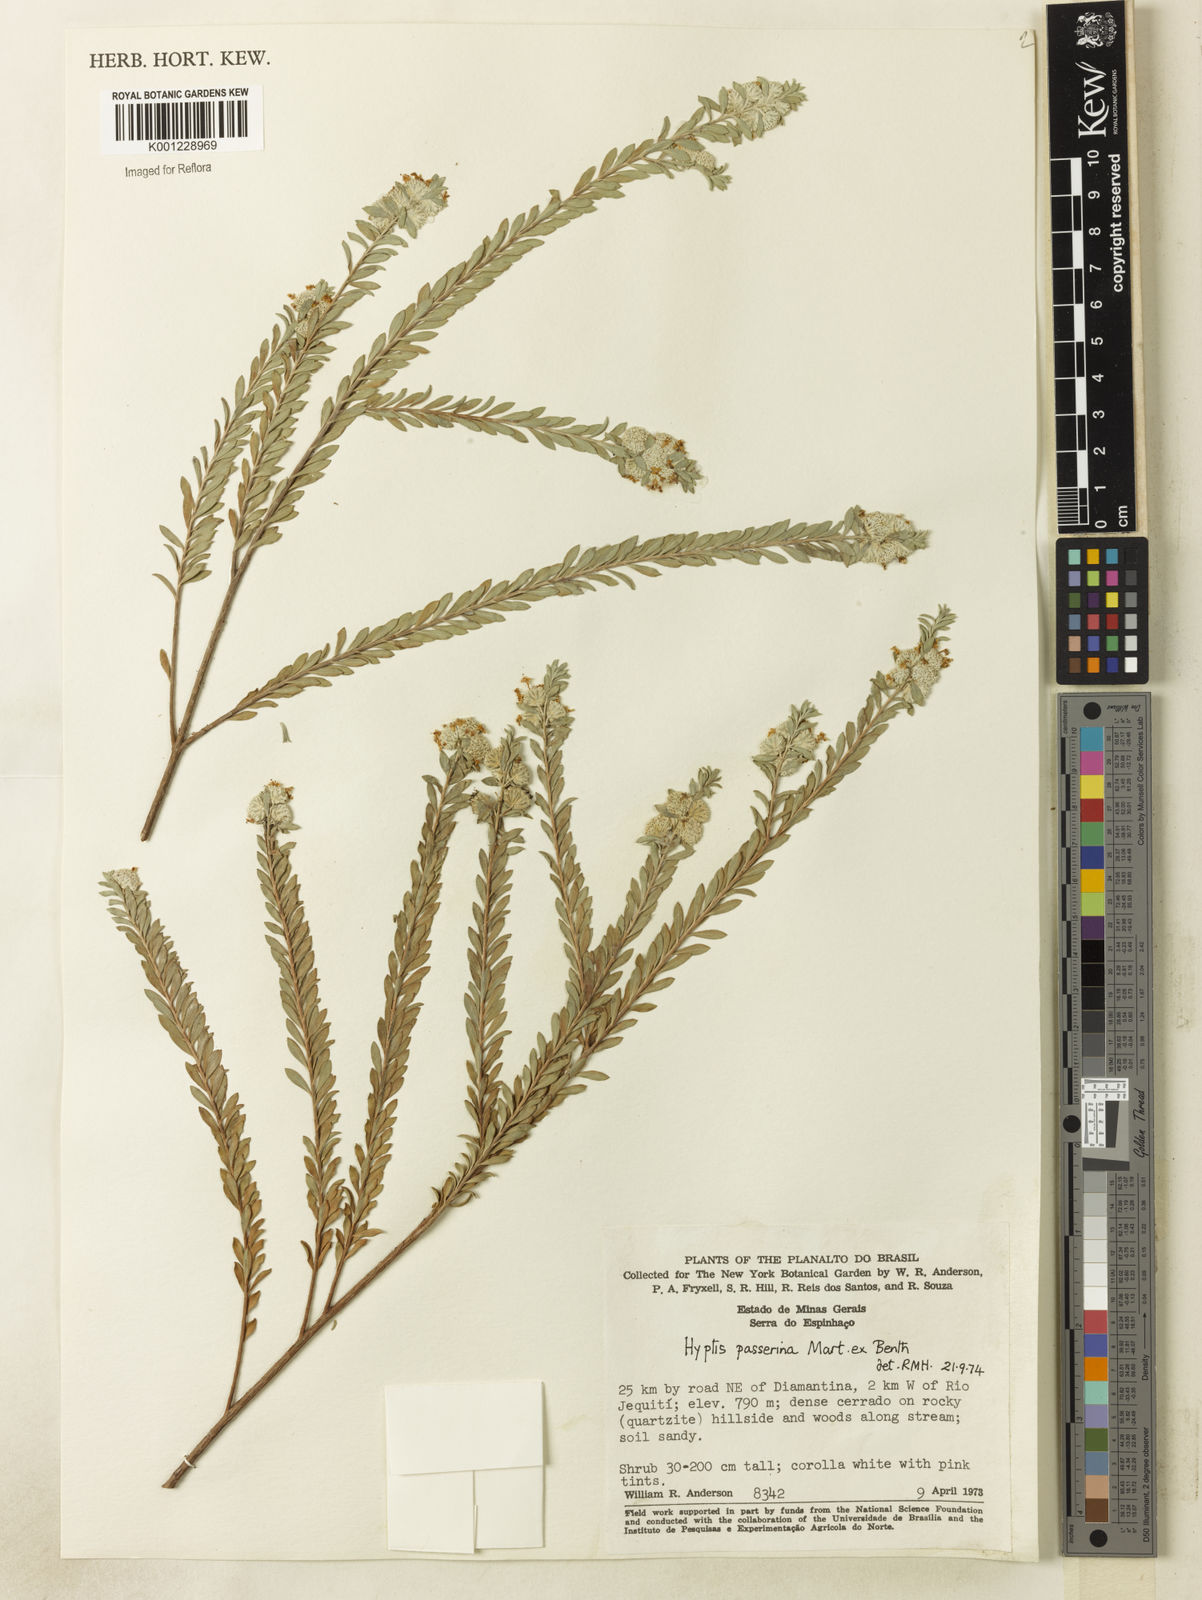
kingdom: Plantae
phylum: Tracheophyta
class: Magnoliopsida
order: Lamiales
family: Lamiaceae
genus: Hyptis
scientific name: Hyptis passerina
